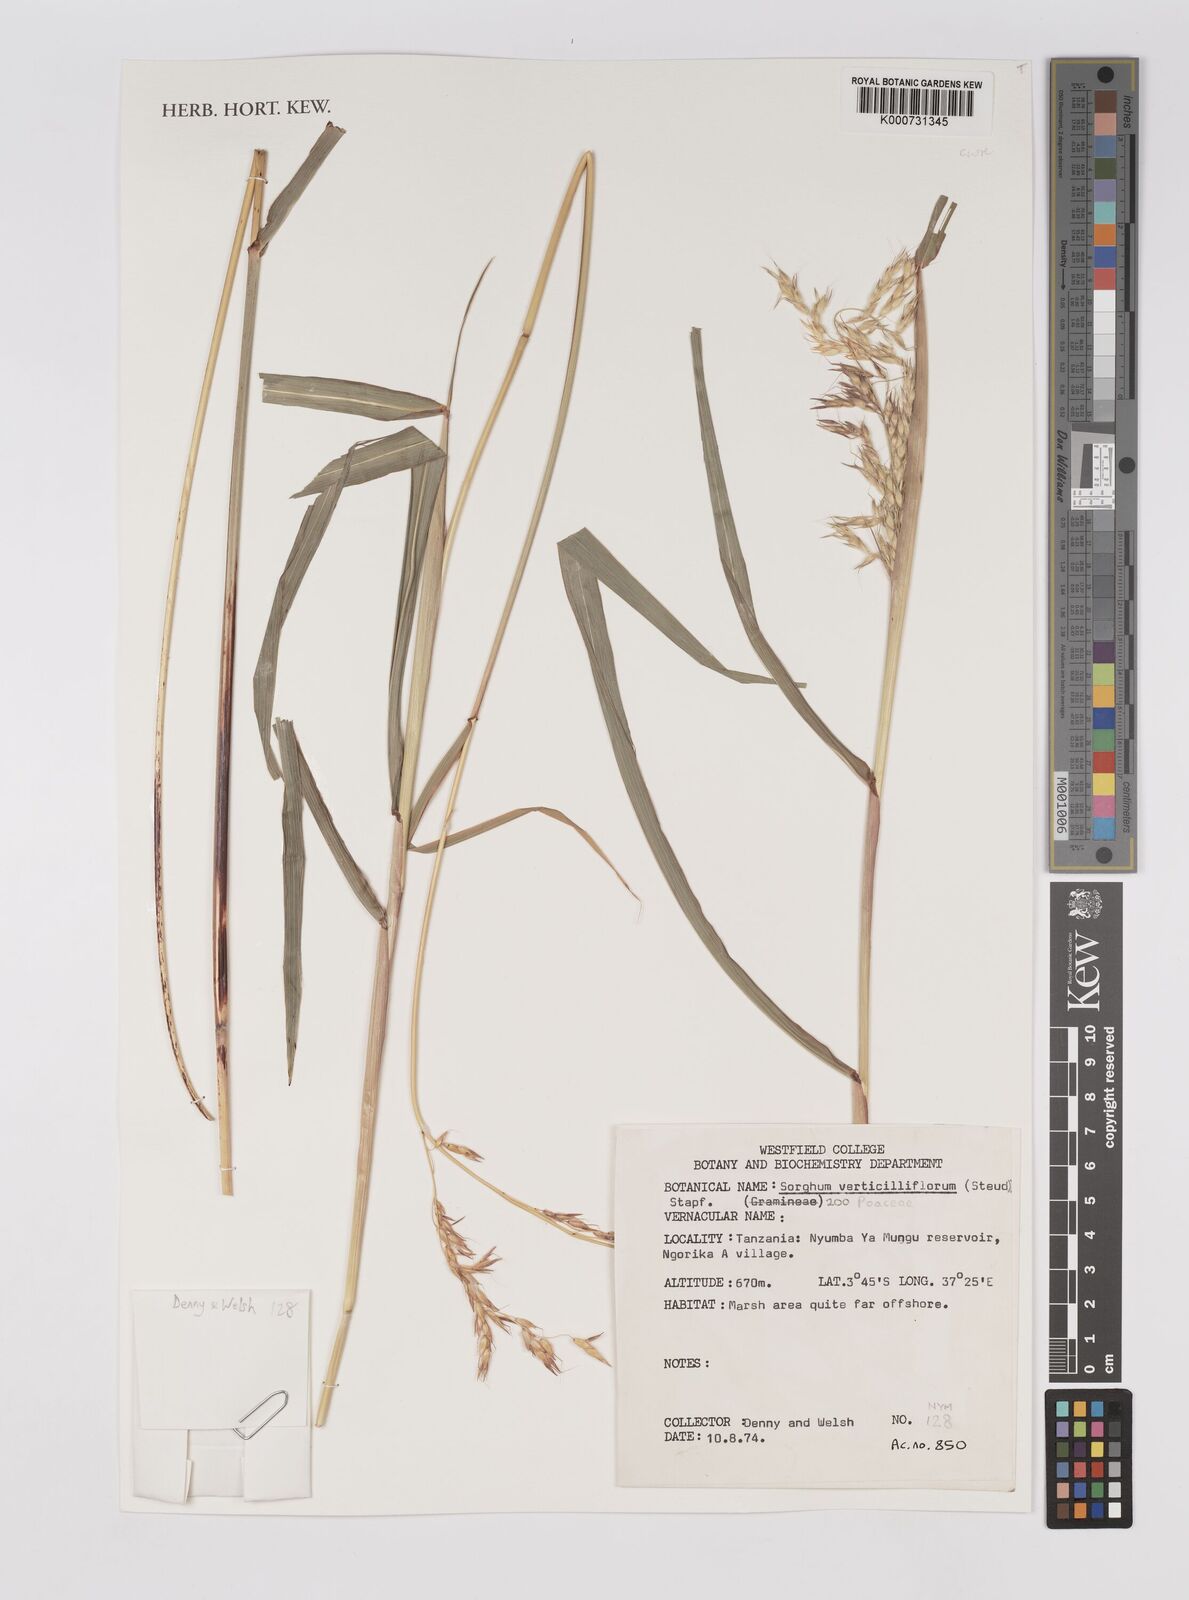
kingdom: Plantae
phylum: Tracheophyta
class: Liliopsida
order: Poales
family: Poaceae
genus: Sorghum
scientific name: Sorghum arundinaceum
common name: Sorghum
